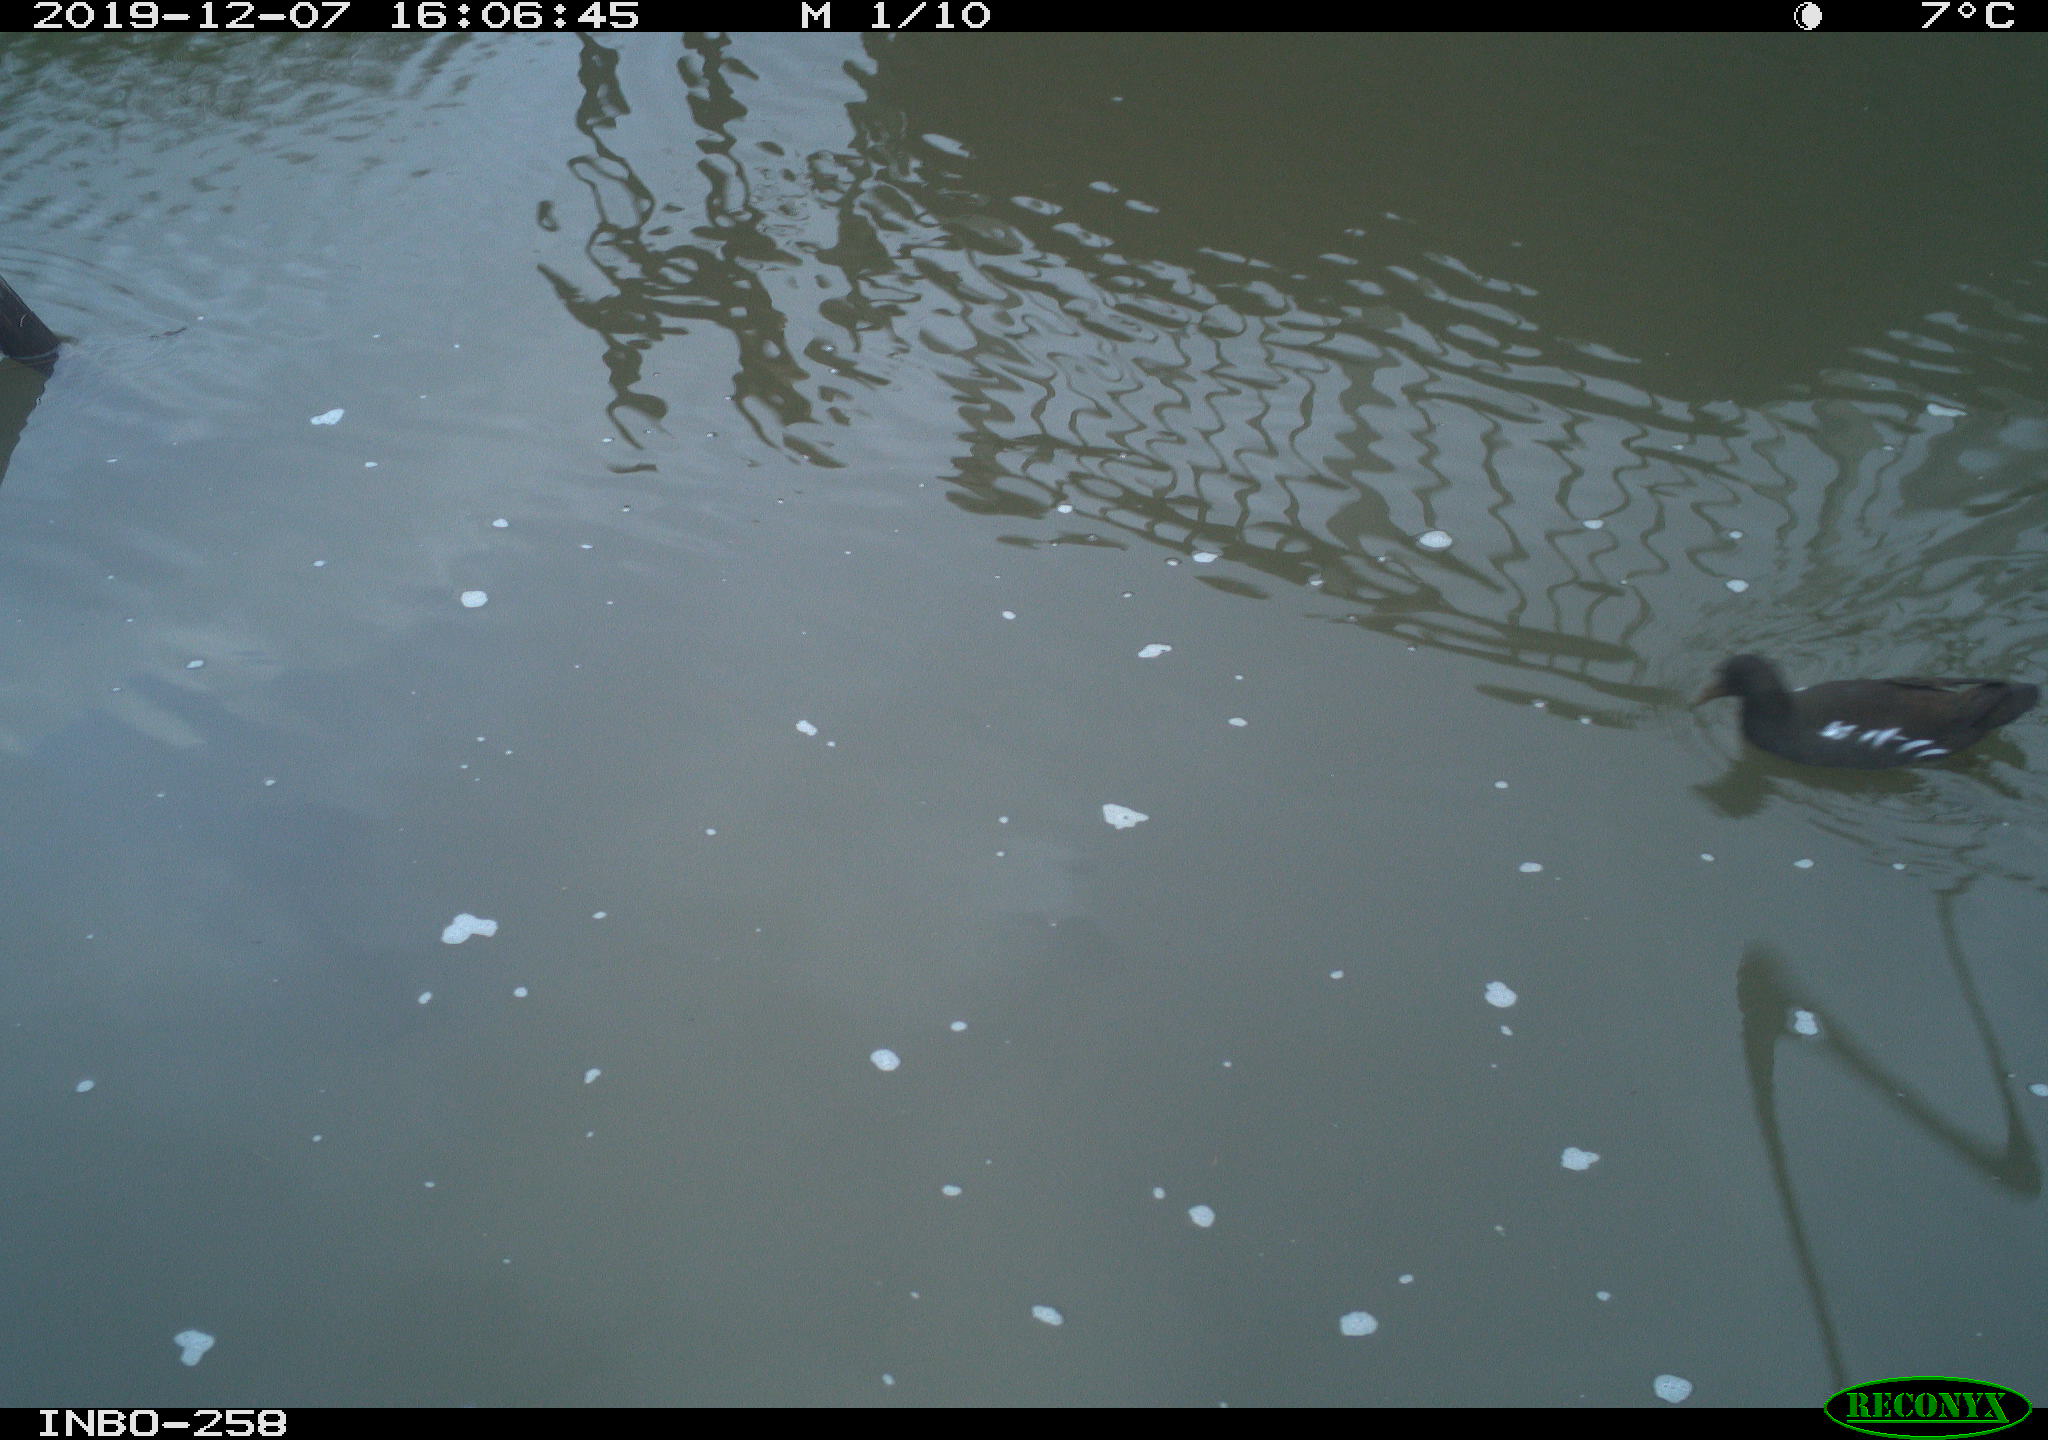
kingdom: Animalia
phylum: Chordata
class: Aves
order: Gruiformes
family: Rallidae
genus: Gallinula
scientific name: Gallinula chloropus
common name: Common moorhen
